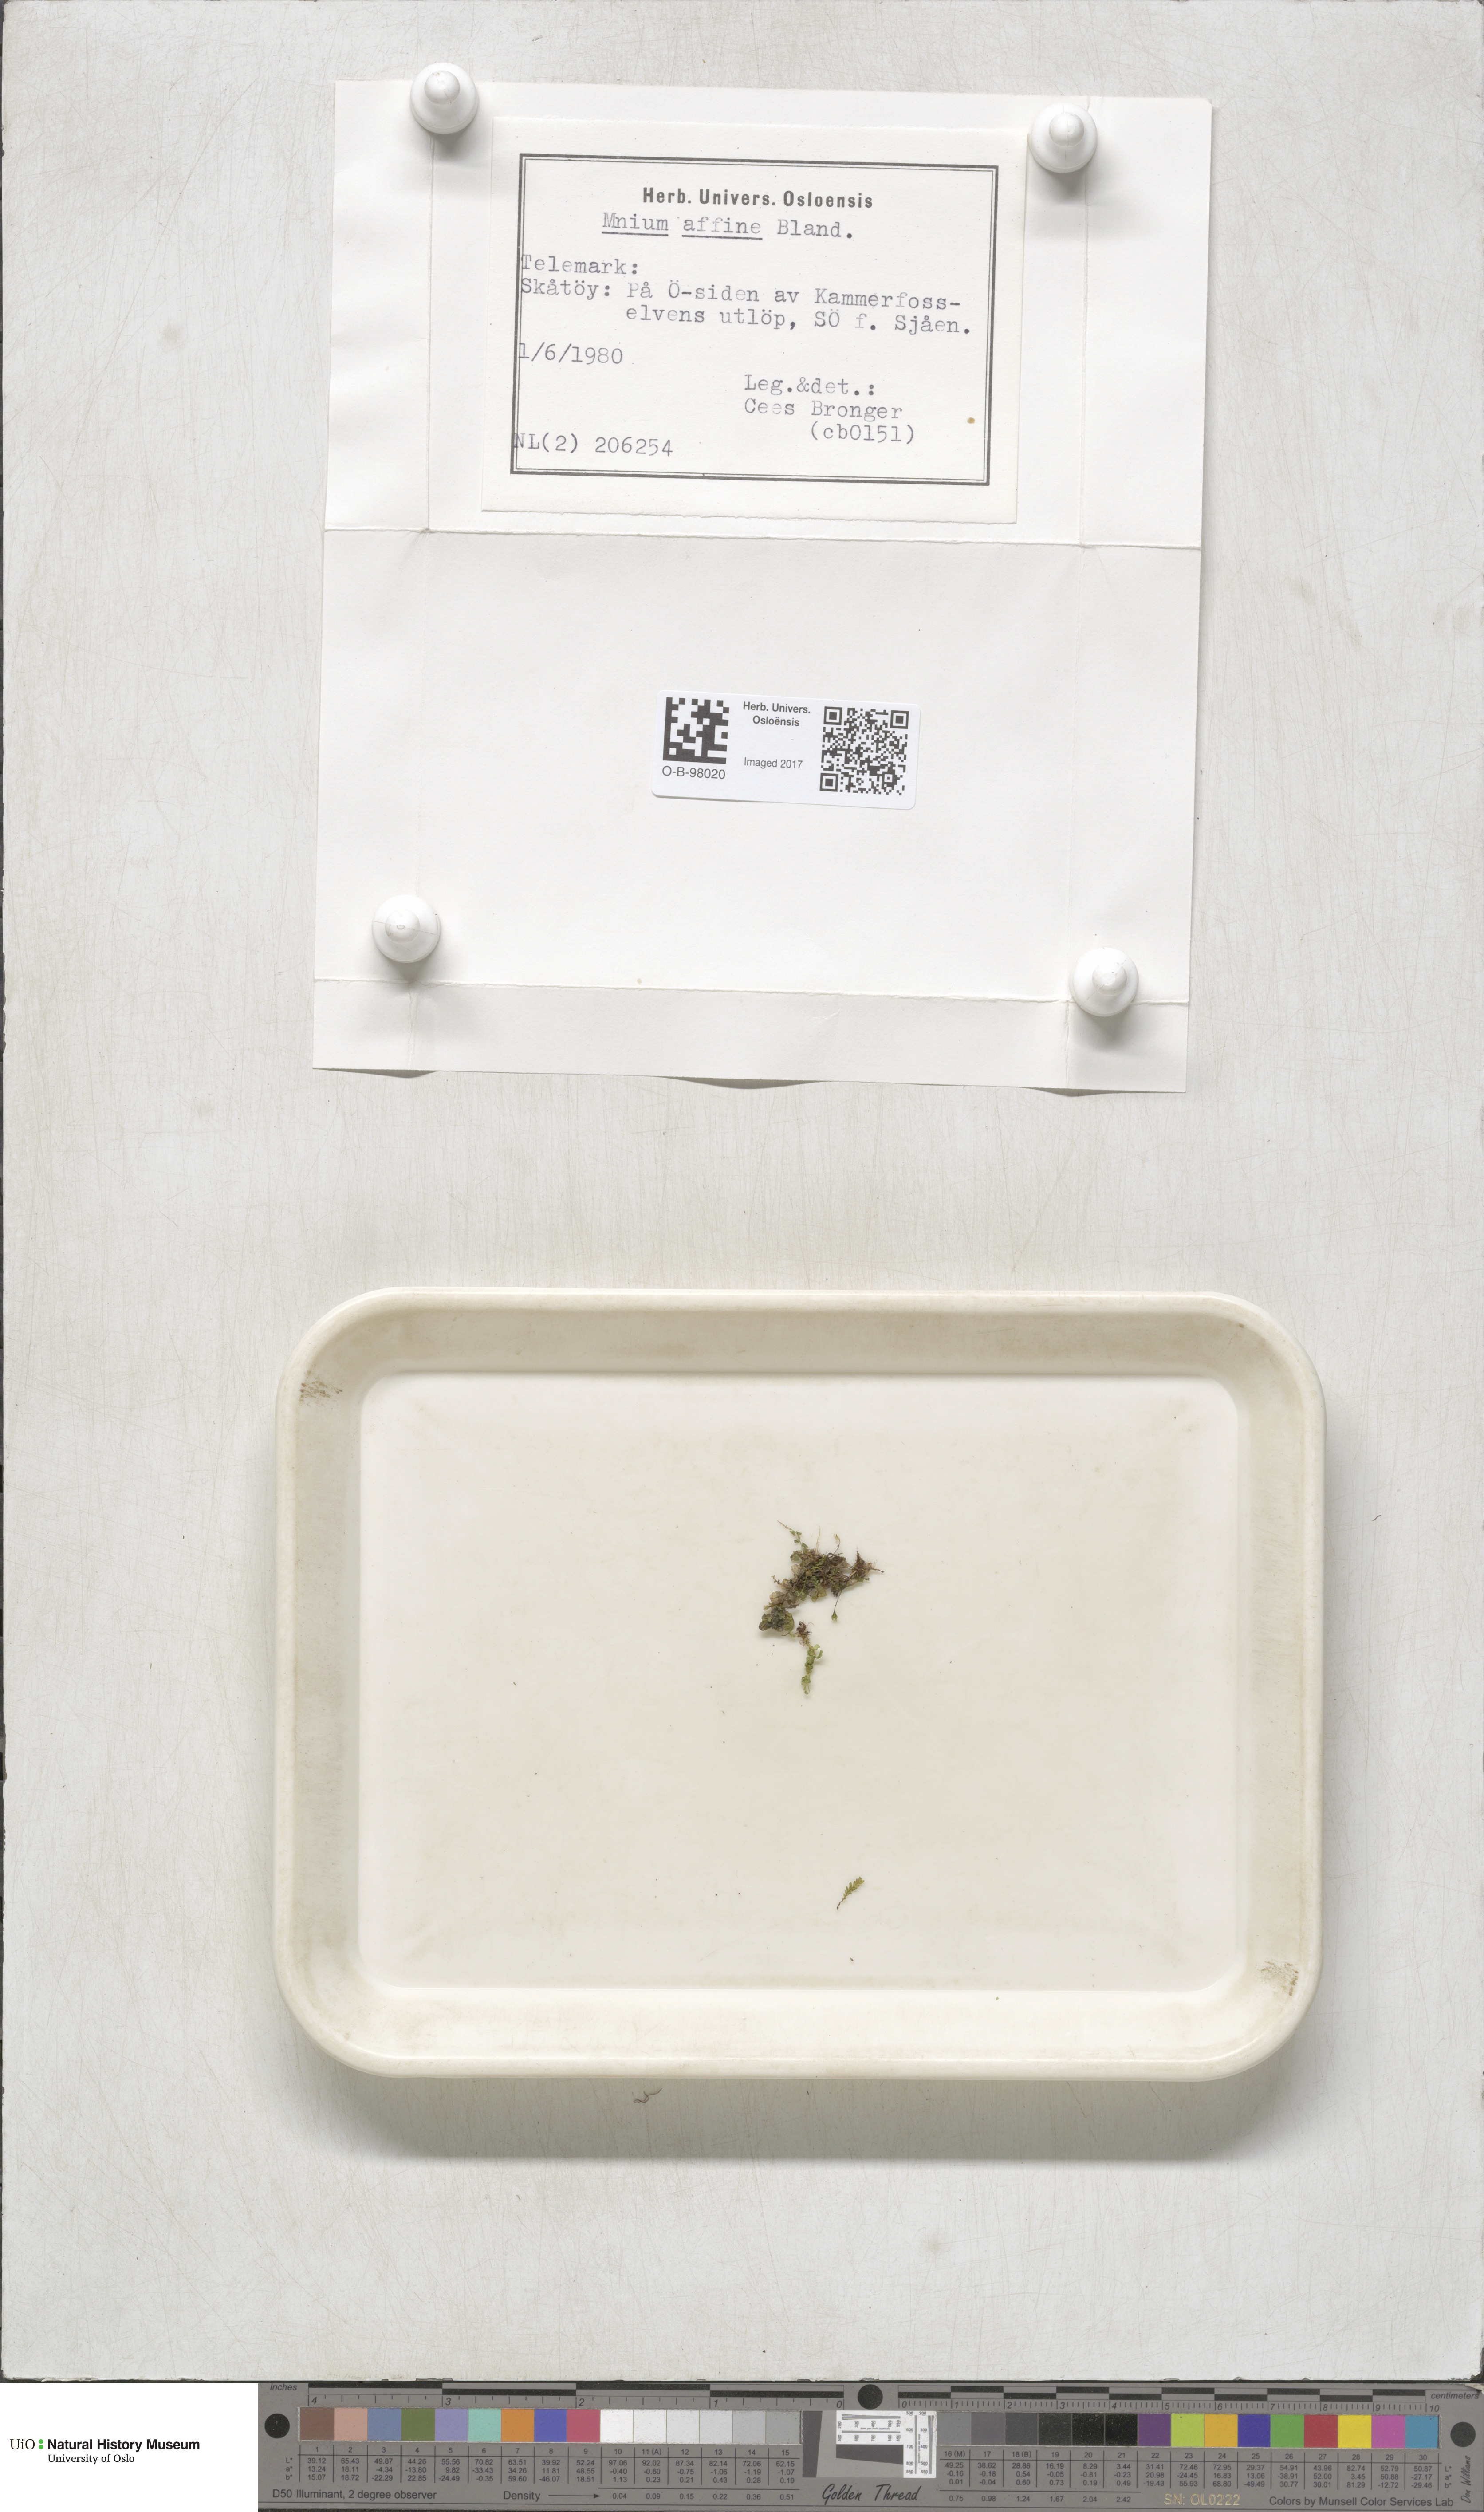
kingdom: Plantae
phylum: Bryophyta
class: Bryopsida
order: Bryales
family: Mniaceae
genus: Plagiomnium
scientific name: Plagiomnium affine
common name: Many-fruited thyme-moss
